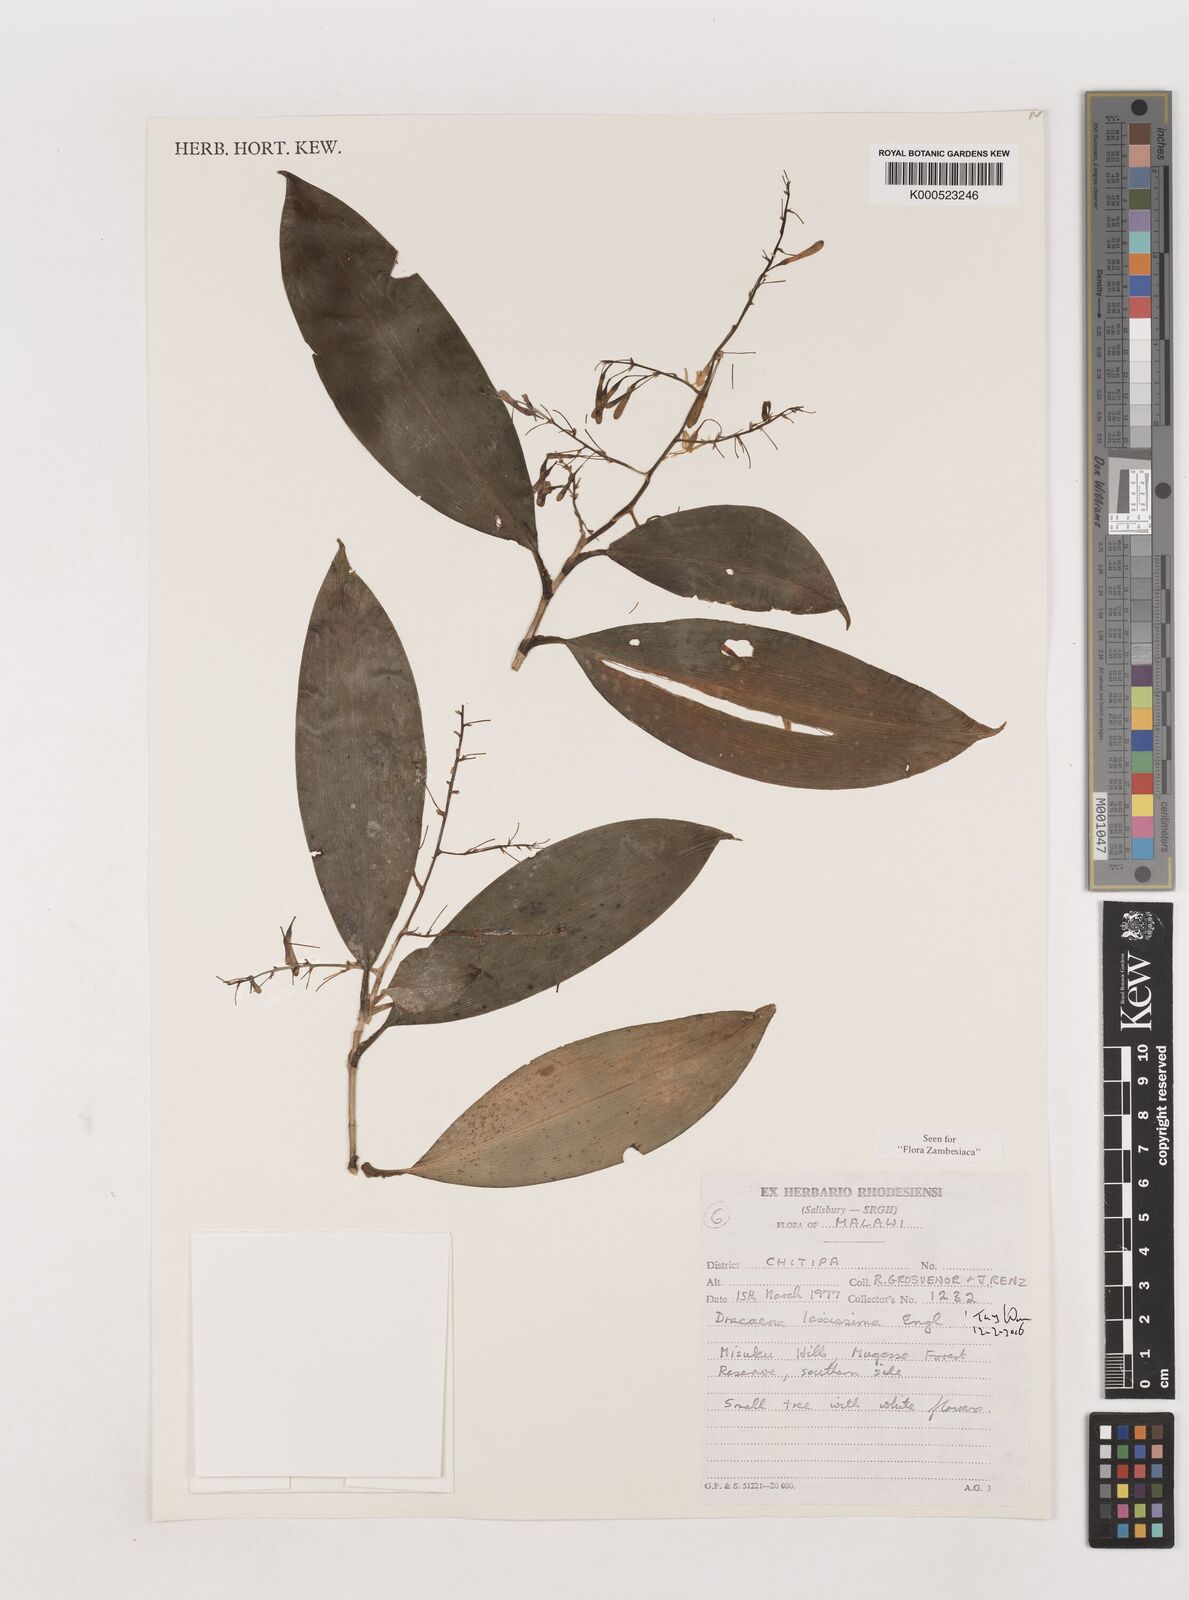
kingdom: Plantae
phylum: Tracheophyta
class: Liliopsida
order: Asparagales
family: Asparagaceae
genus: Dracaena
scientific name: Dracaena laxissima
